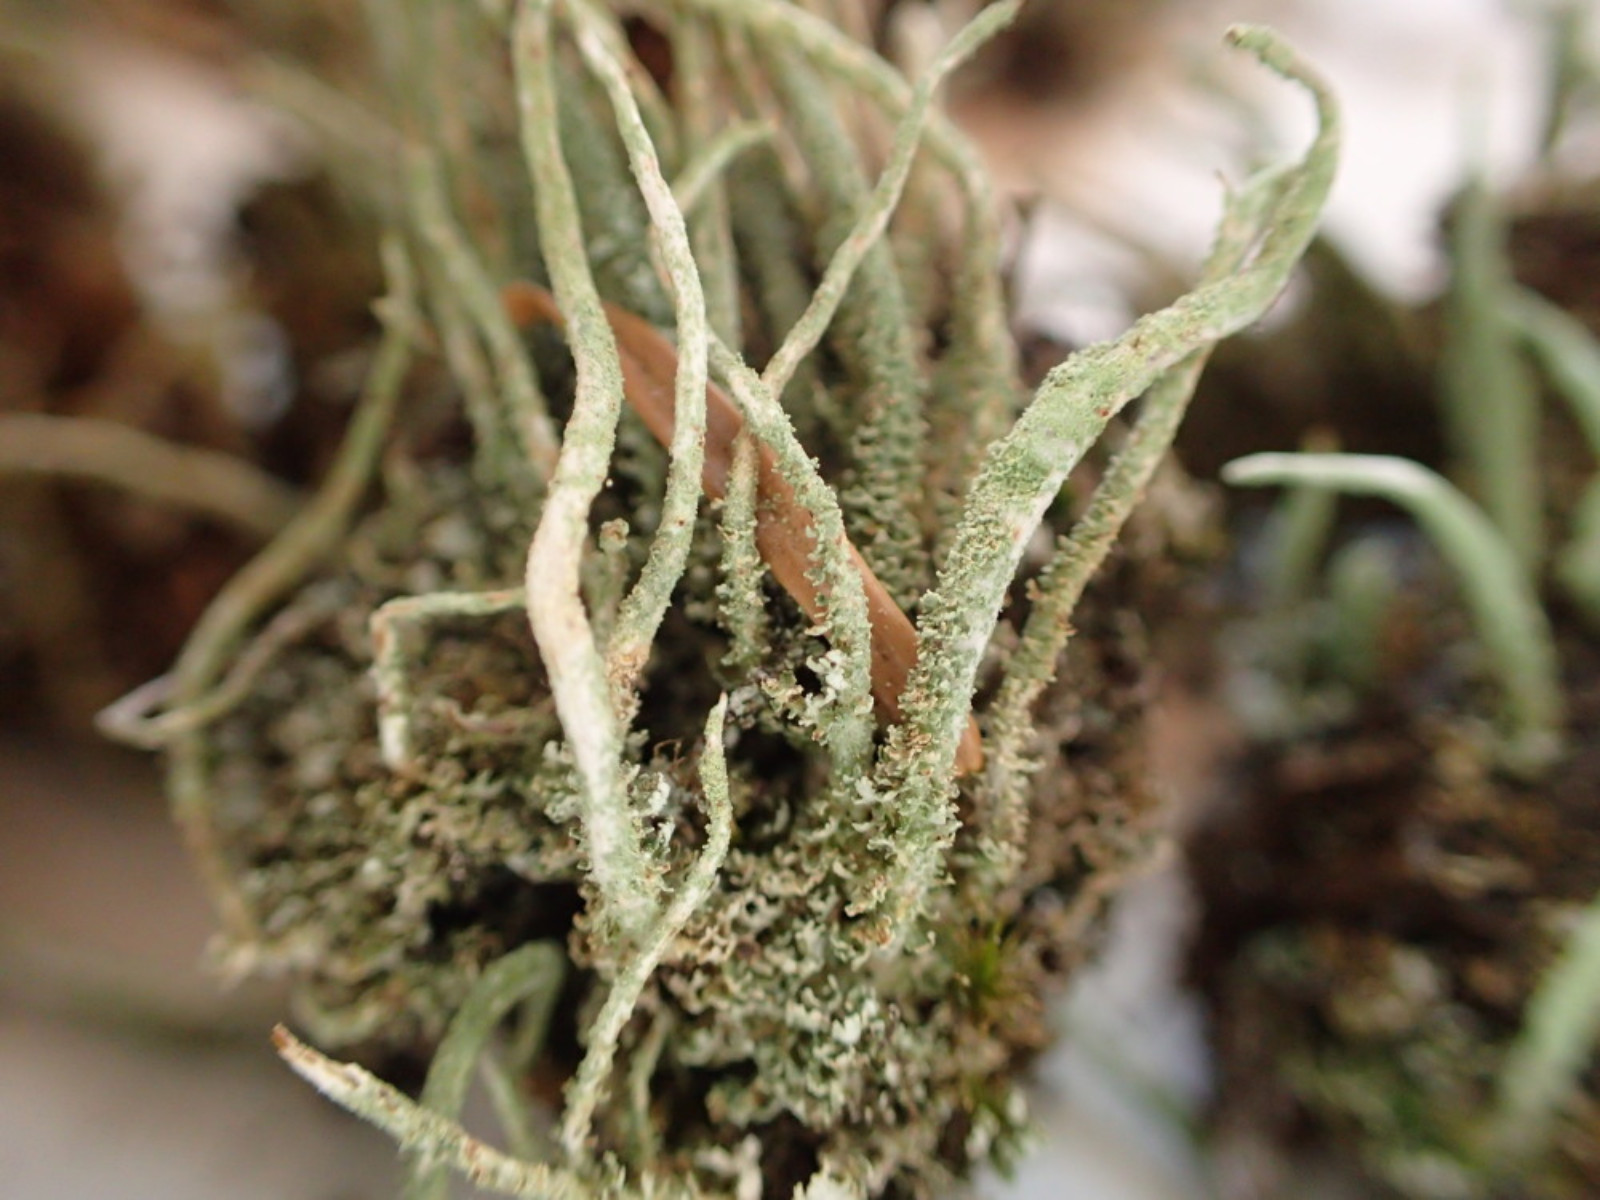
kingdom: Fungi
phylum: Ascomycota
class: Lecanoromycetes
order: Lecanorales
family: Cladoniaceae
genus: Cladonia
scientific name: Cladonia glauca
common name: grågrøn bægerlav
